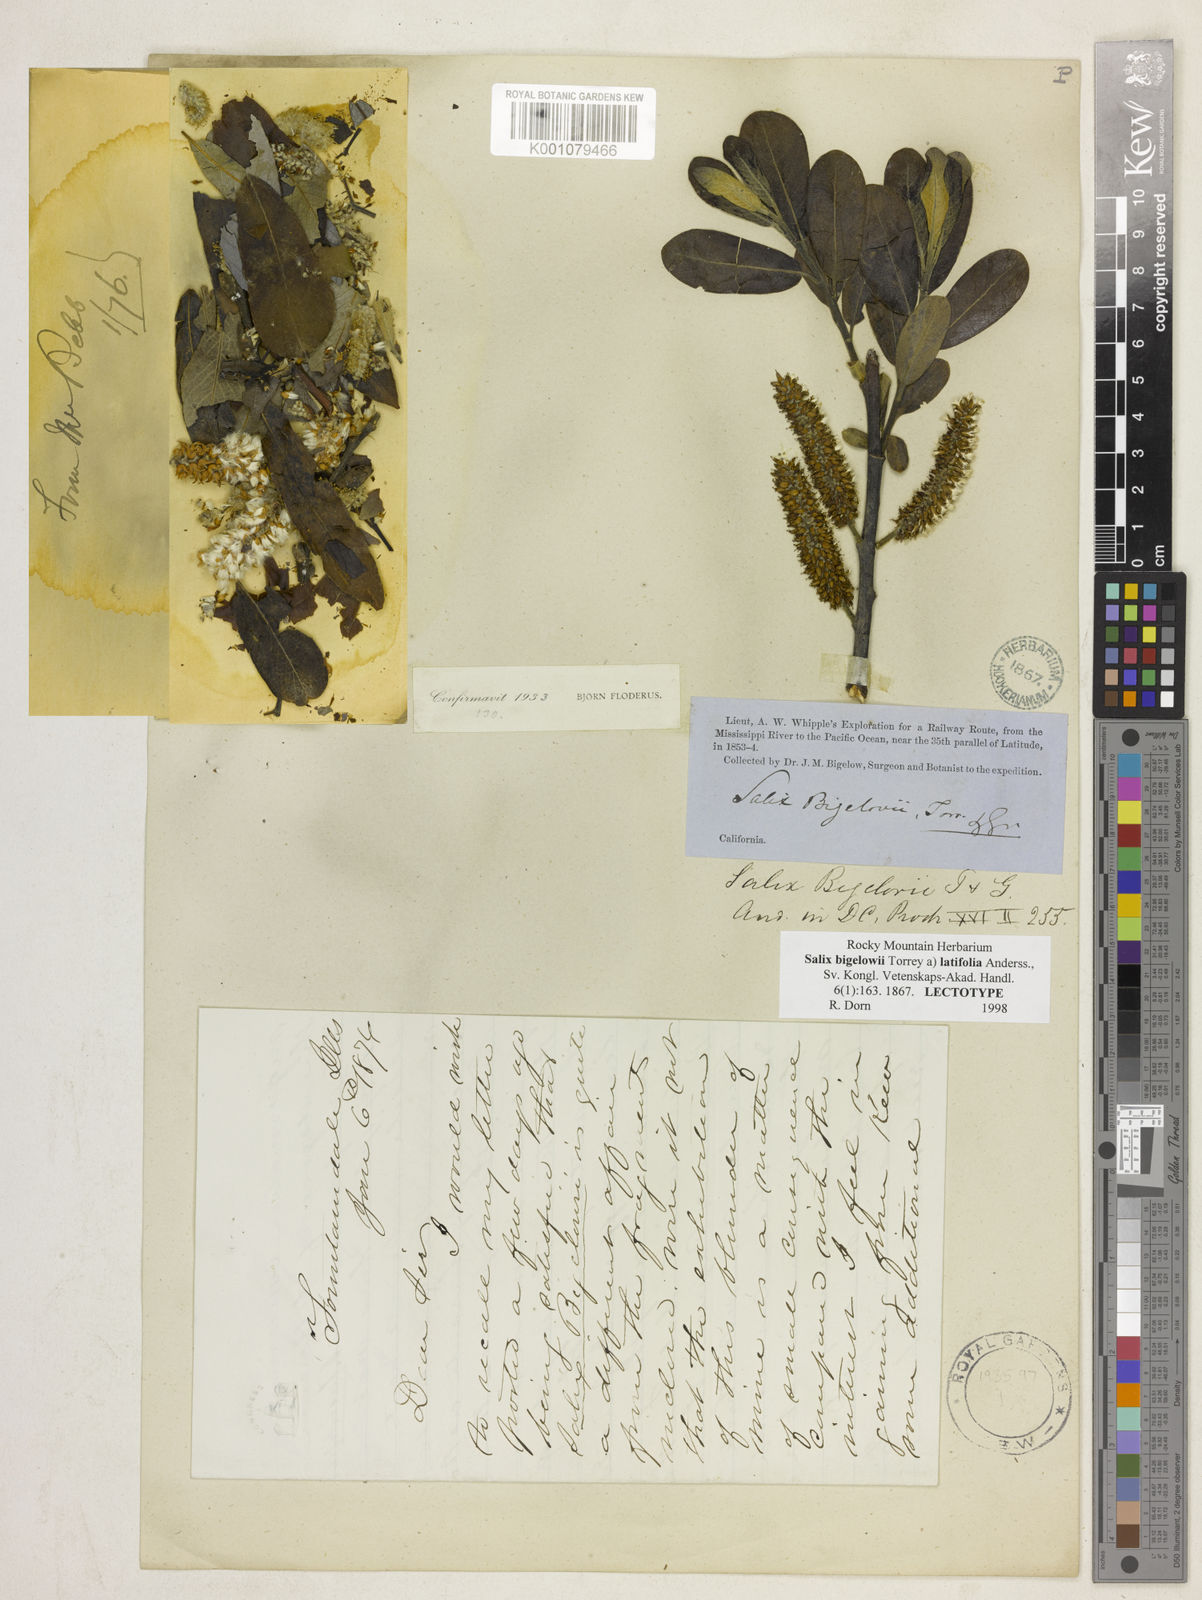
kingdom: Plantae
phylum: Tracheophyta
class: Magnoliopsida
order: Malpighiales
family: Salicaceae
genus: Salix
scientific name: Salix lasiolepis
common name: Arroyo willow
